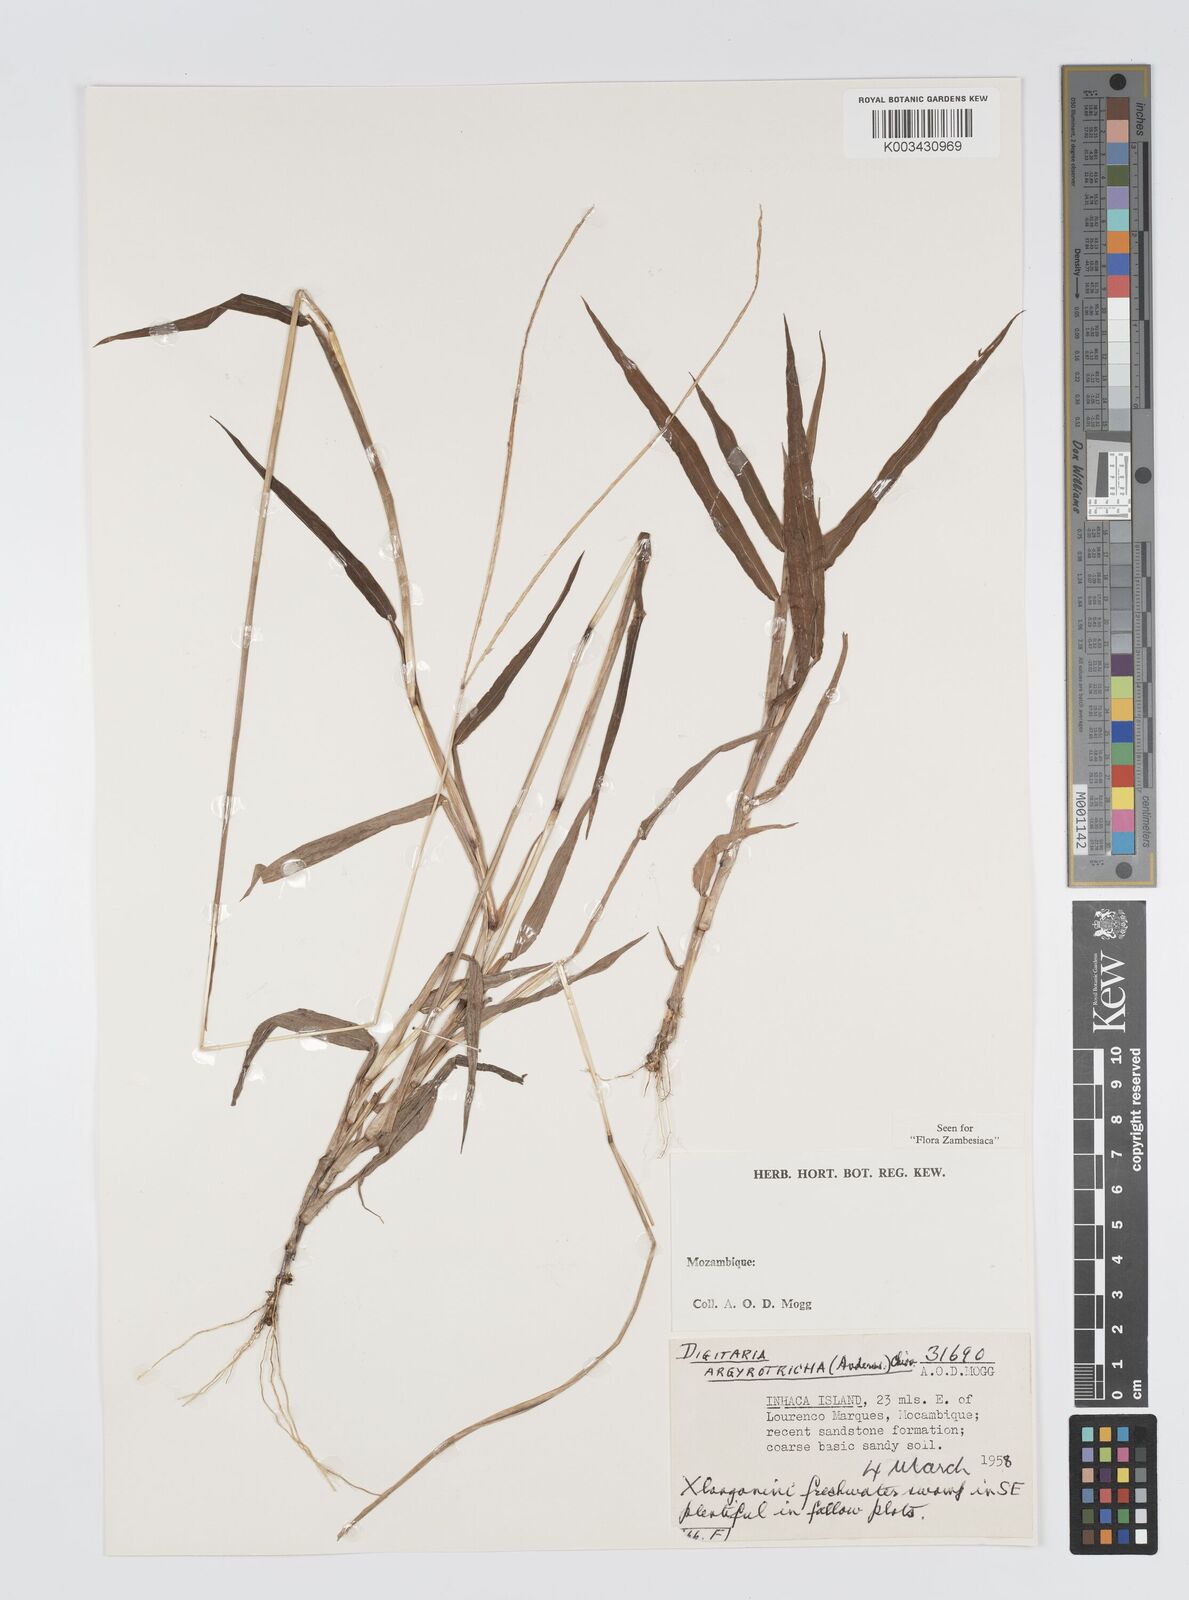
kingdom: Plantae
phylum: Tracheophyta
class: Liliopsida
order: Poales
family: Poaceae
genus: Digitaria
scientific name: Digitaria argyrotricha
